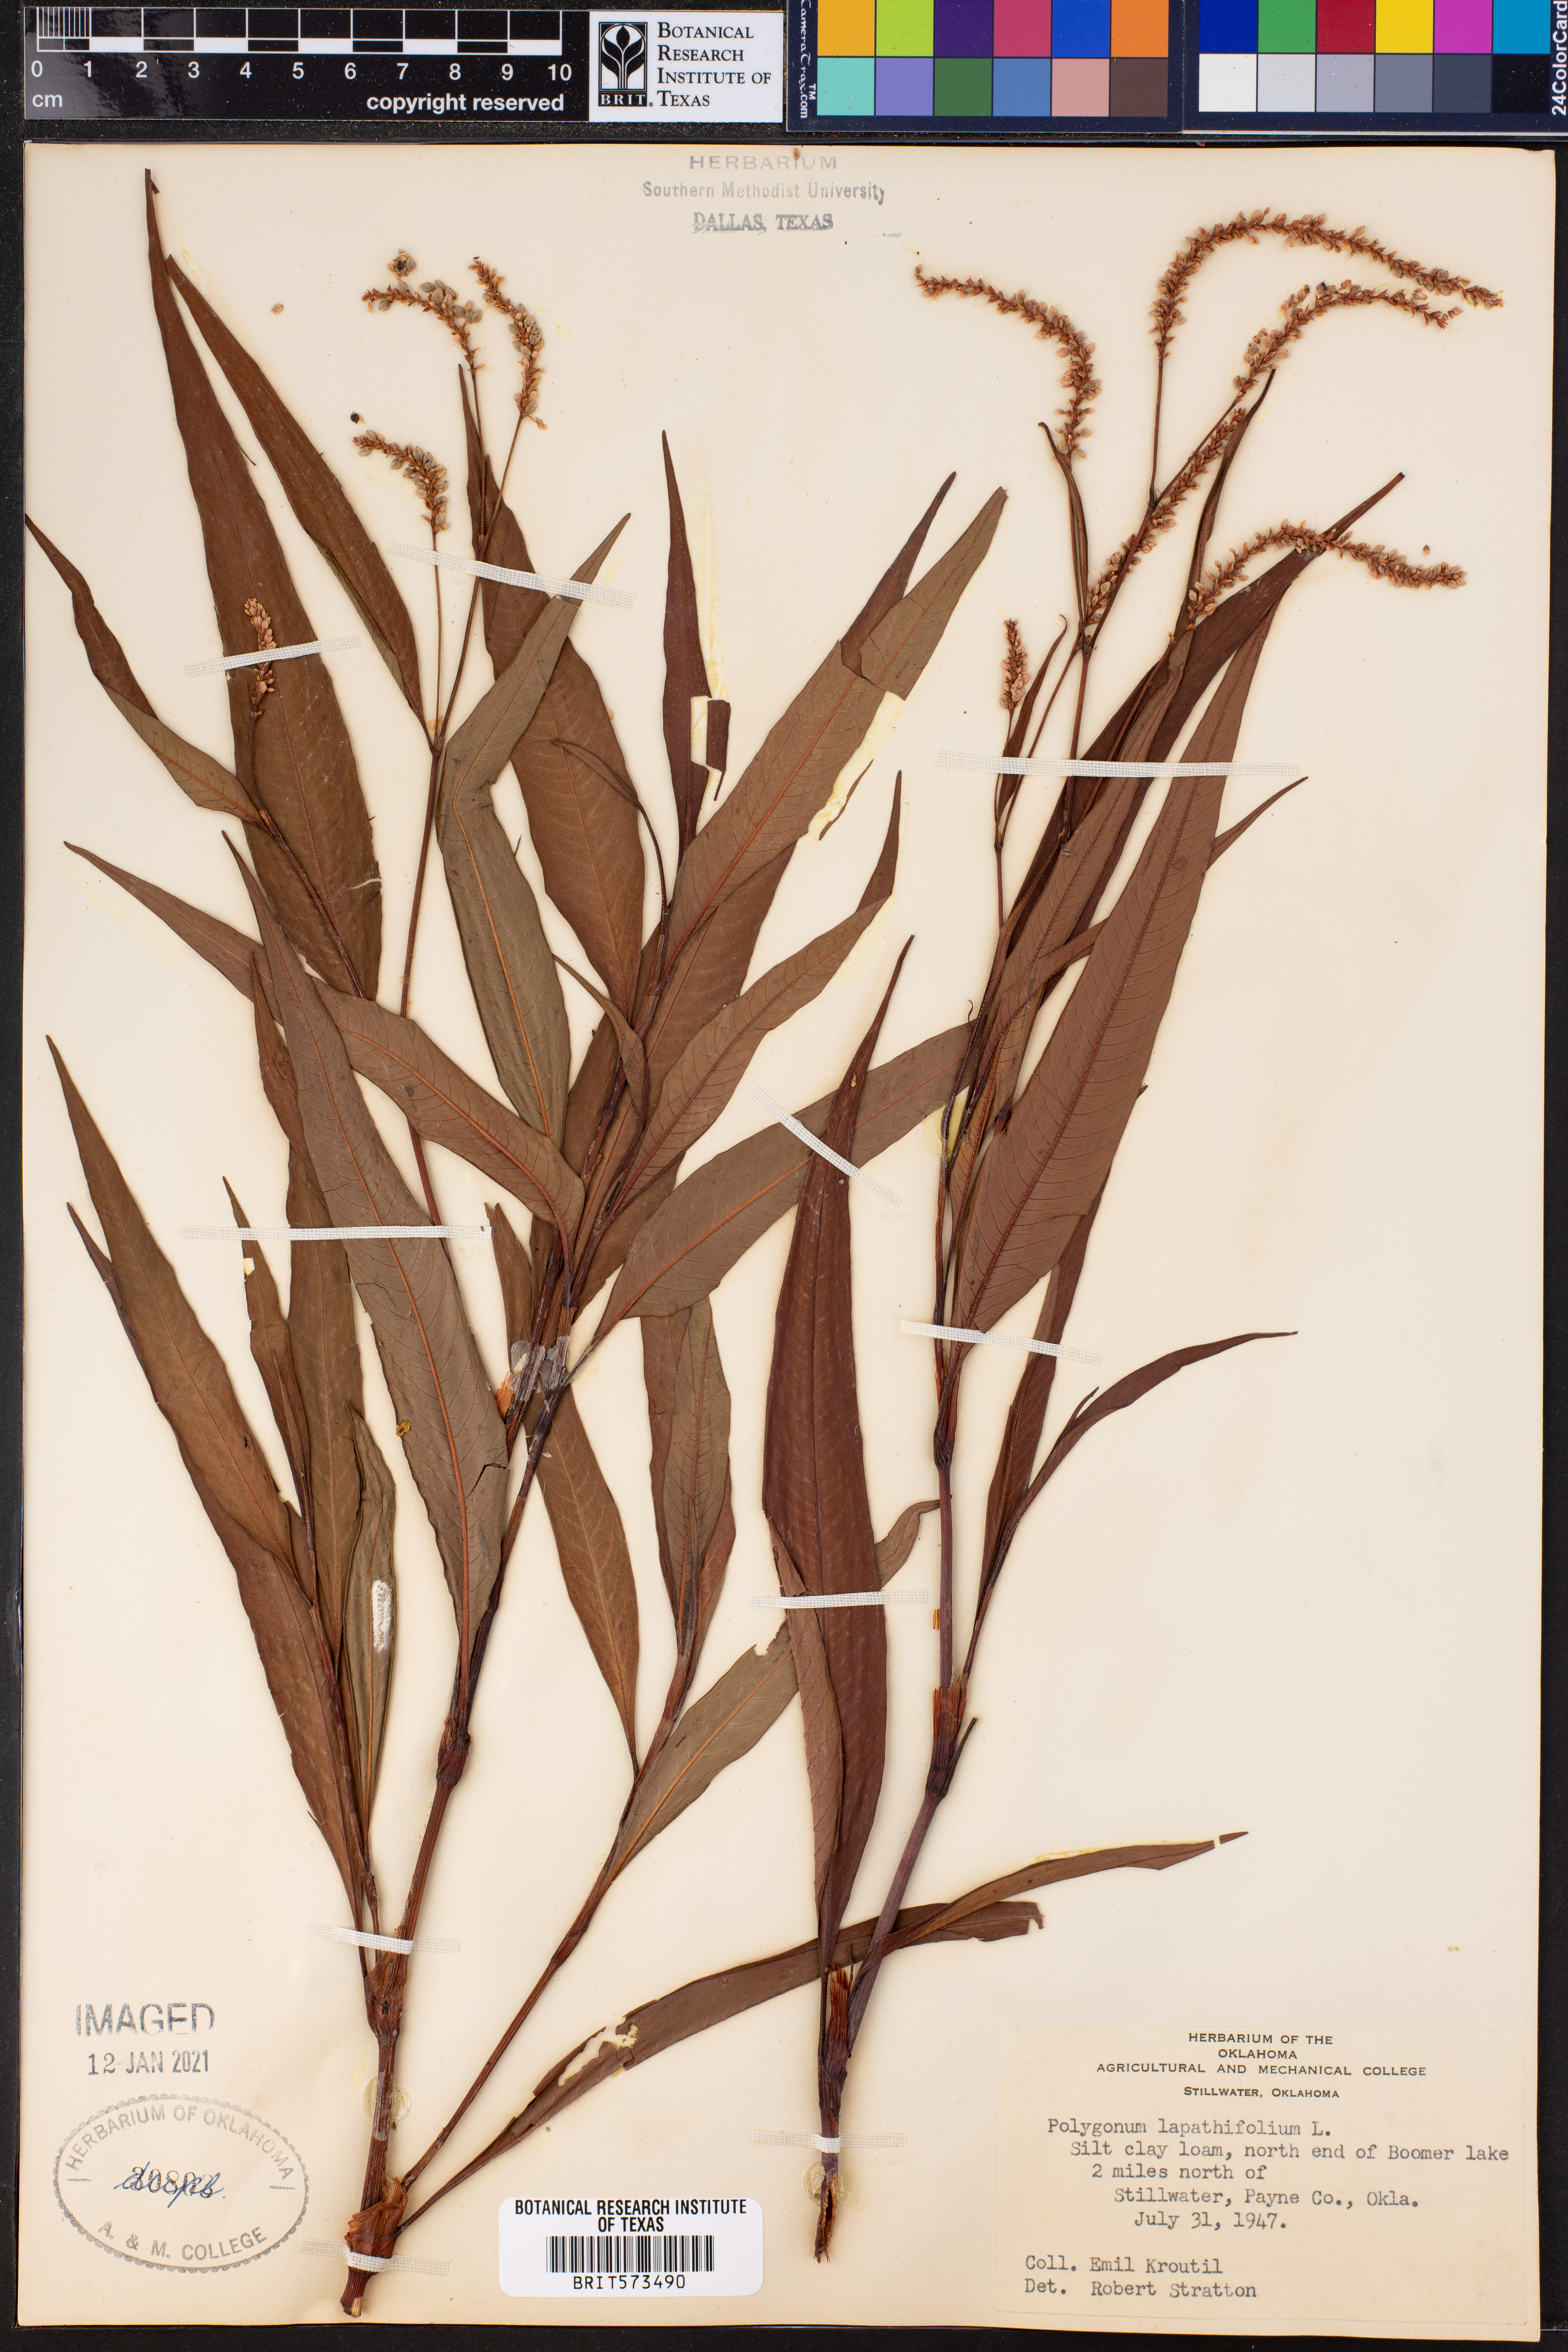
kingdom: Plantae
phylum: Tracheophyta
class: Magnoliopsida
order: Caryophyllales
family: Polygonaceae
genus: Persicaria
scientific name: Persicaria lapathifolia
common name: Curlytop knotweed
